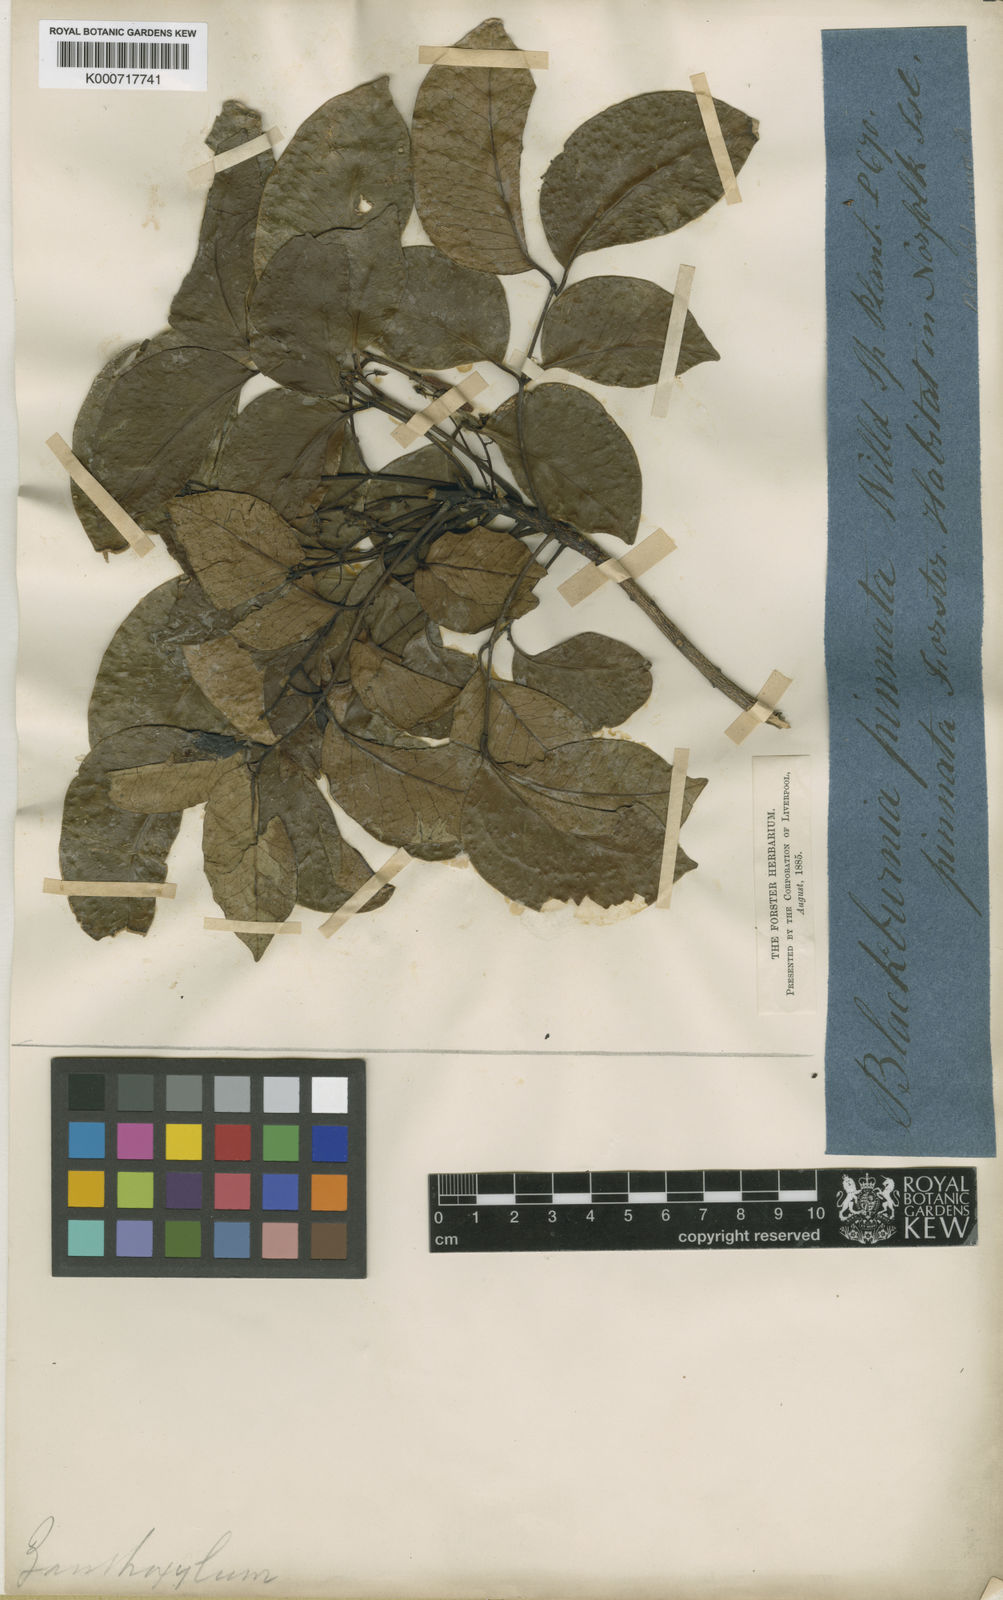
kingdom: Plantae
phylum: Tracheophyta
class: Magnoliopsida
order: Sapindales
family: Rutaceae
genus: Zanthoxylum
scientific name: Zanthoxylum pinnatum
